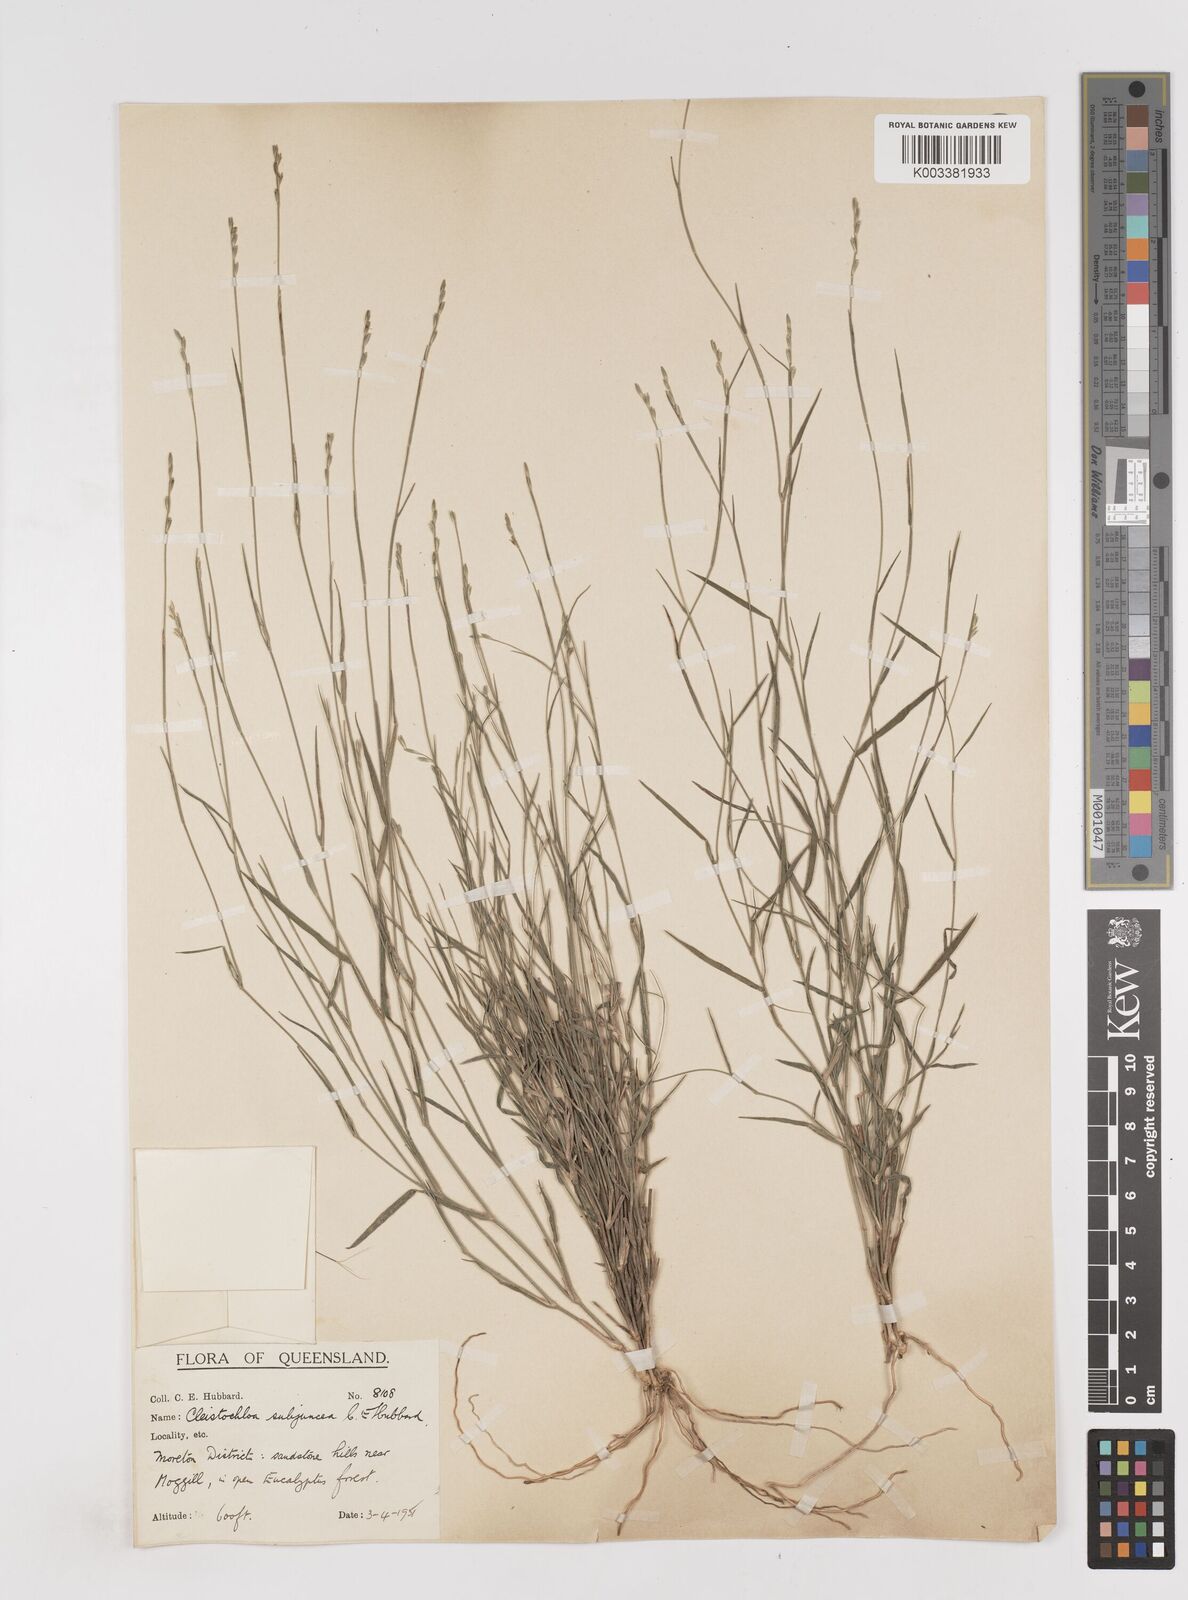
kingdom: Plantae
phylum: Tracheophyta
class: Liliopsida
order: Poales
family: Poaceae
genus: Cleistochloa
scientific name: Cleistochloa subjuncea
